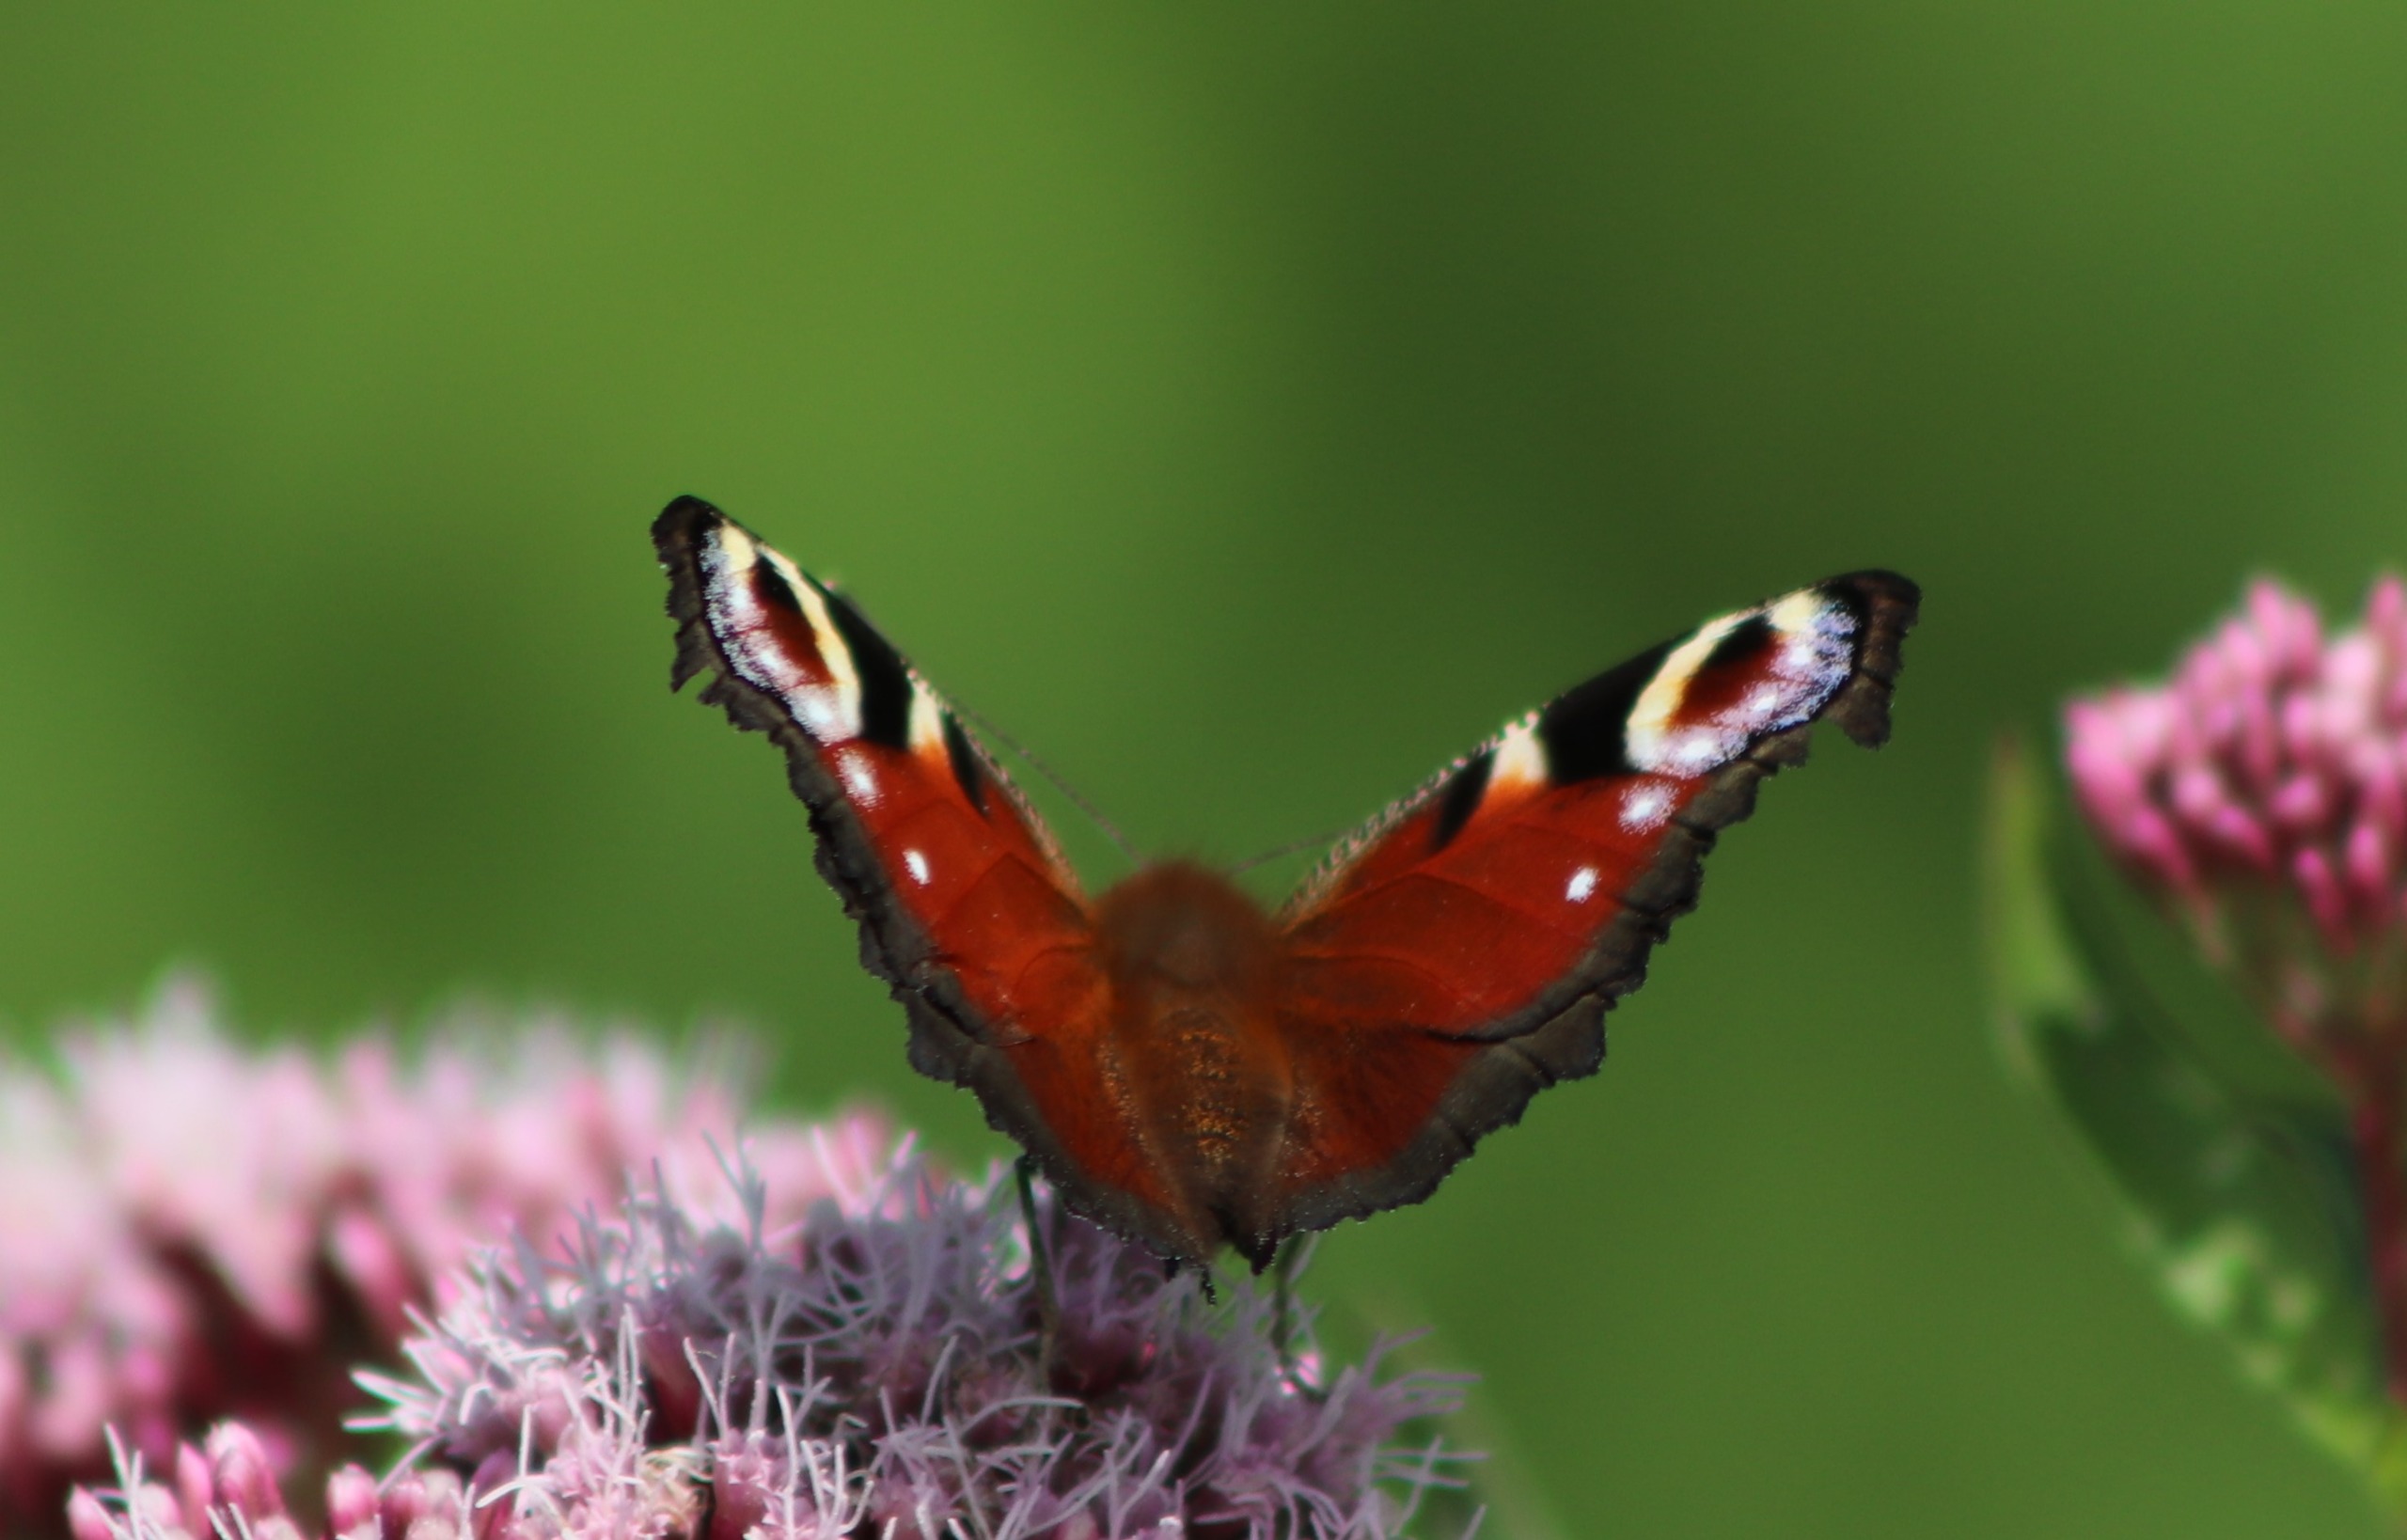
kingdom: Animalia
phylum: Arthropoda
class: Insecta
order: Lepidoptera
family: Nymphalidae
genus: Aglais
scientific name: Aglais io
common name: Dagpåfugleøje
